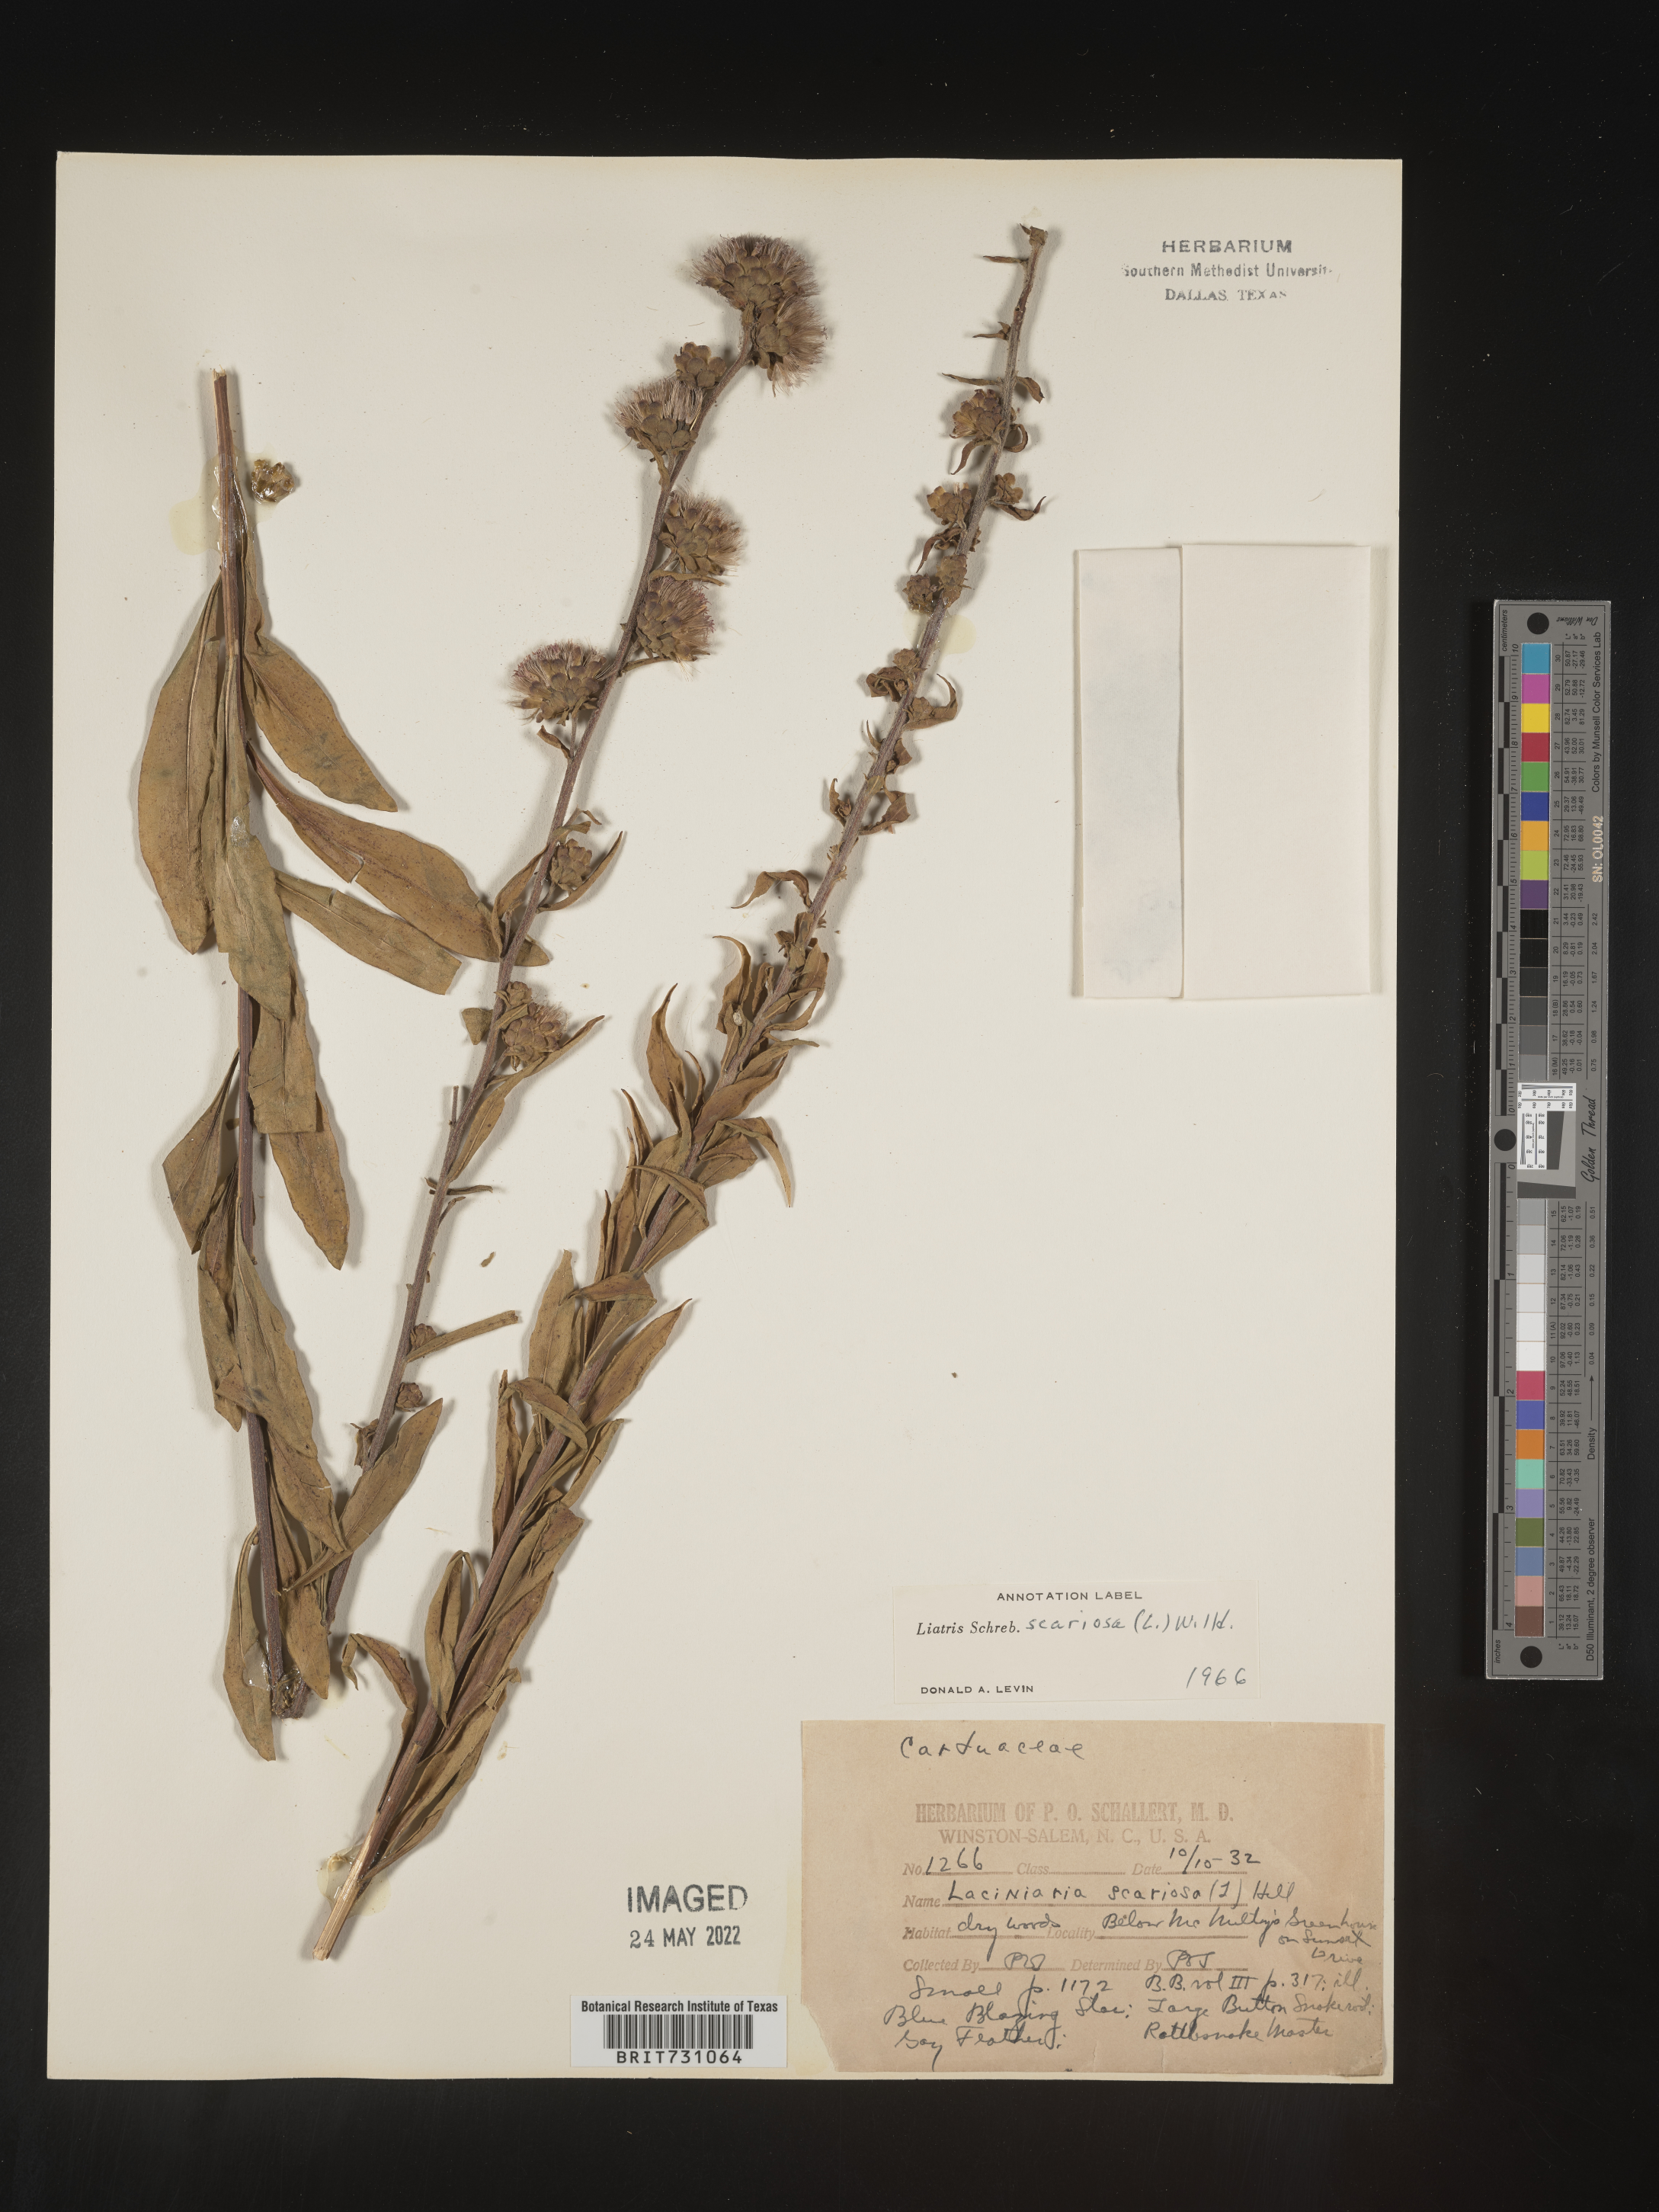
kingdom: Plantae
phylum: Tracheophyta
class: Magnoliopsida
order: Asterales
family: Asteraceae
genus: Liatris
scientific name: Liatris scariosa
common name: Northern gayfeather
